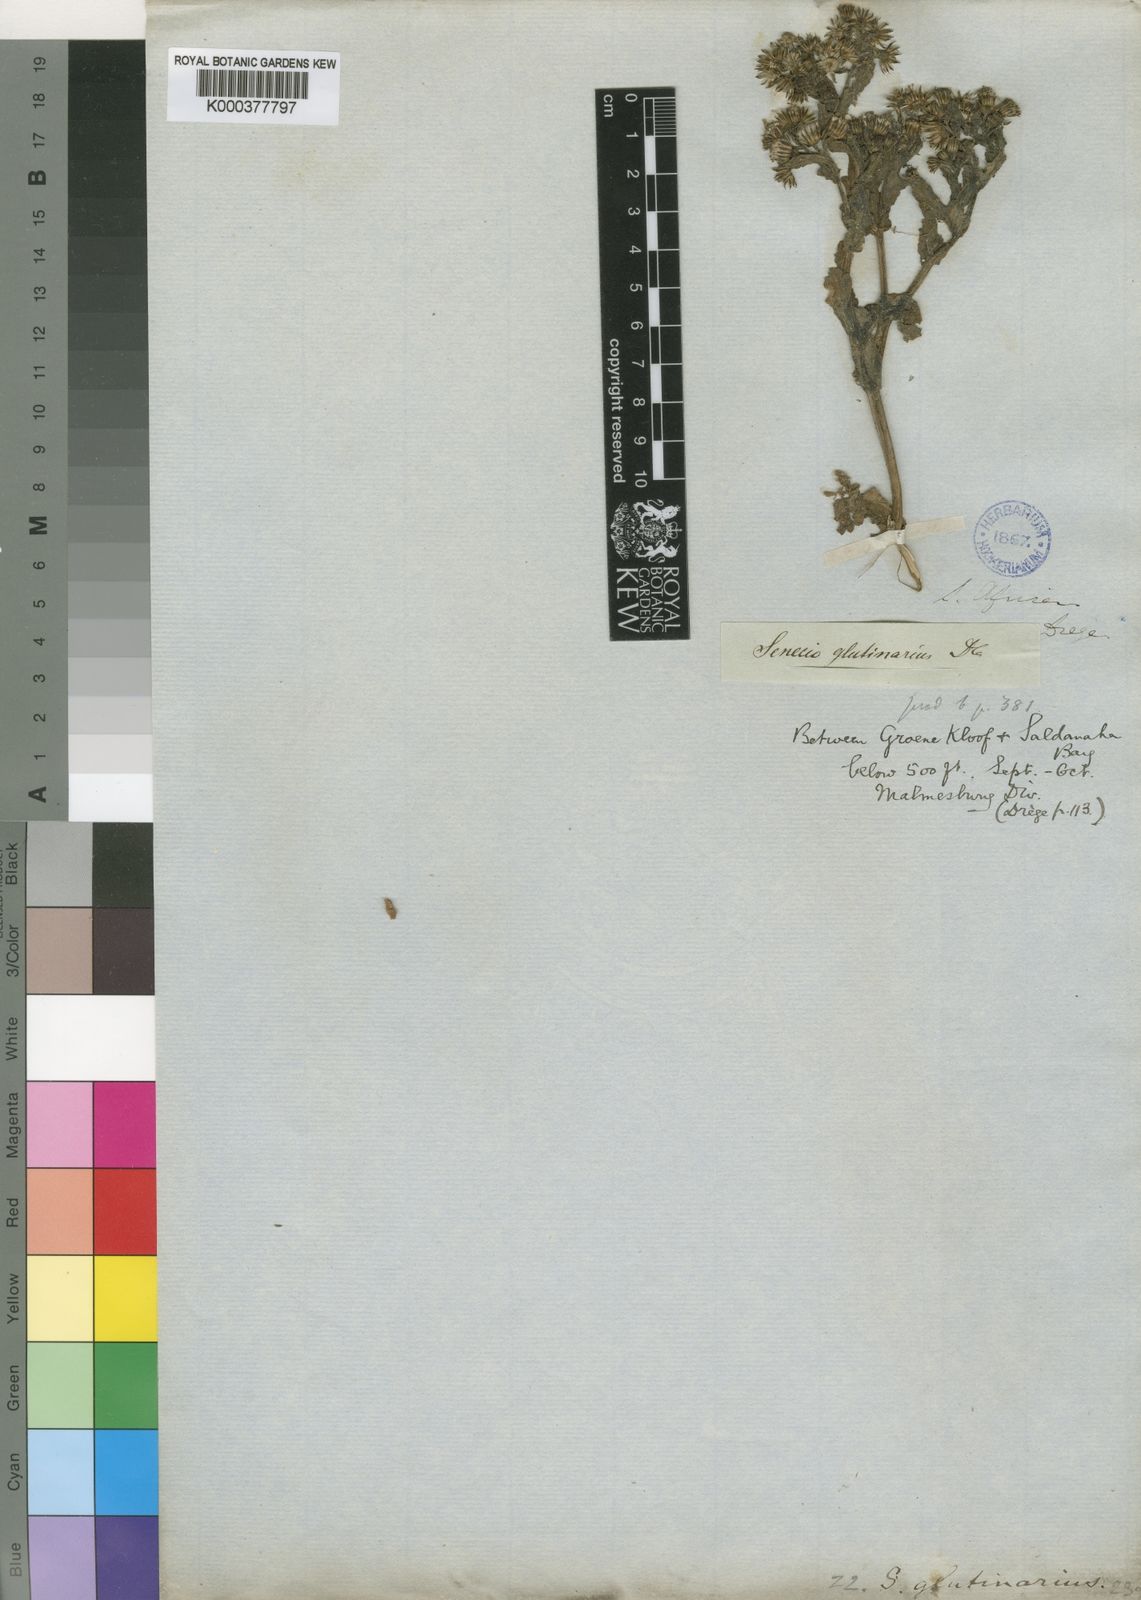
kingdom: Plantae
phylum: Tracheophyta
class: Magnoliopsida
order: Asterales
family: Asteraceae
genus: Senecio
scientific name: Senecio glutinarius
